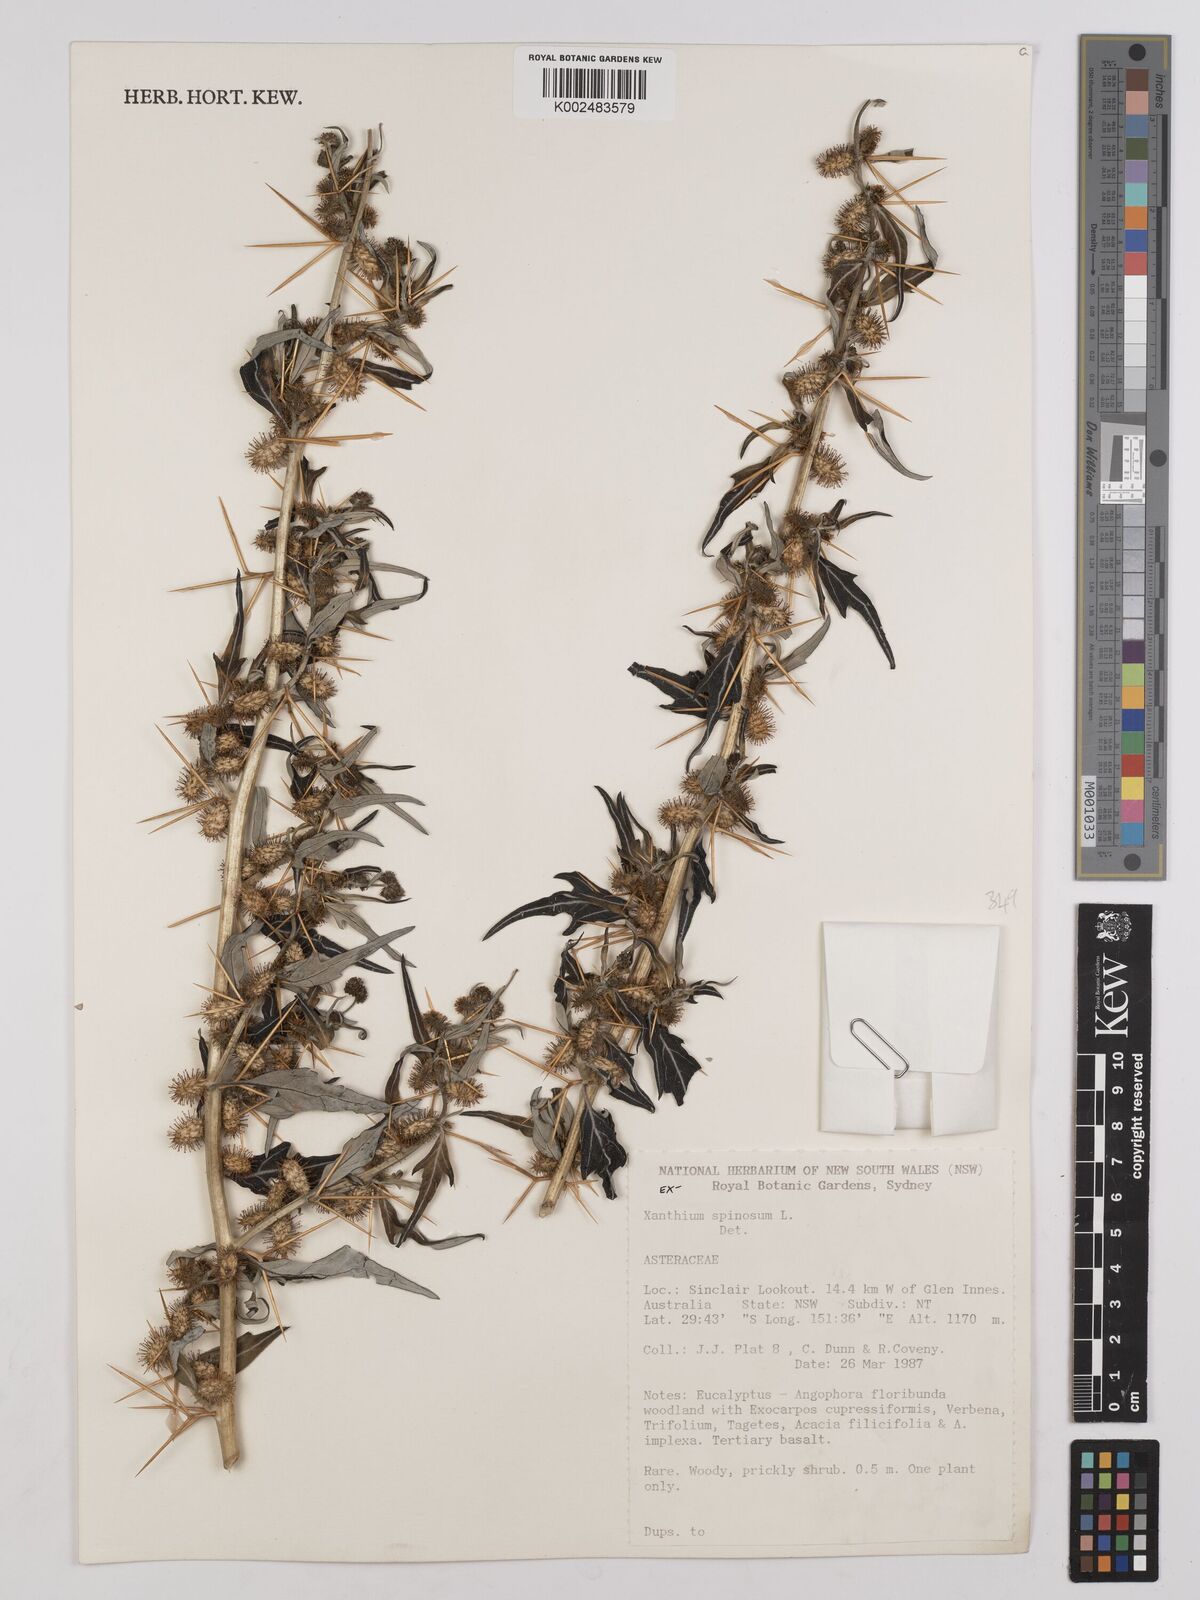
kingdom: Plantae
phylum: Tracheophyta
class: Magnoliopsida
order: Asterales
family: Asteraceae
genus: Xanthium
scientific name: Xanthium spinosum
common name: Spiny cocklebur
